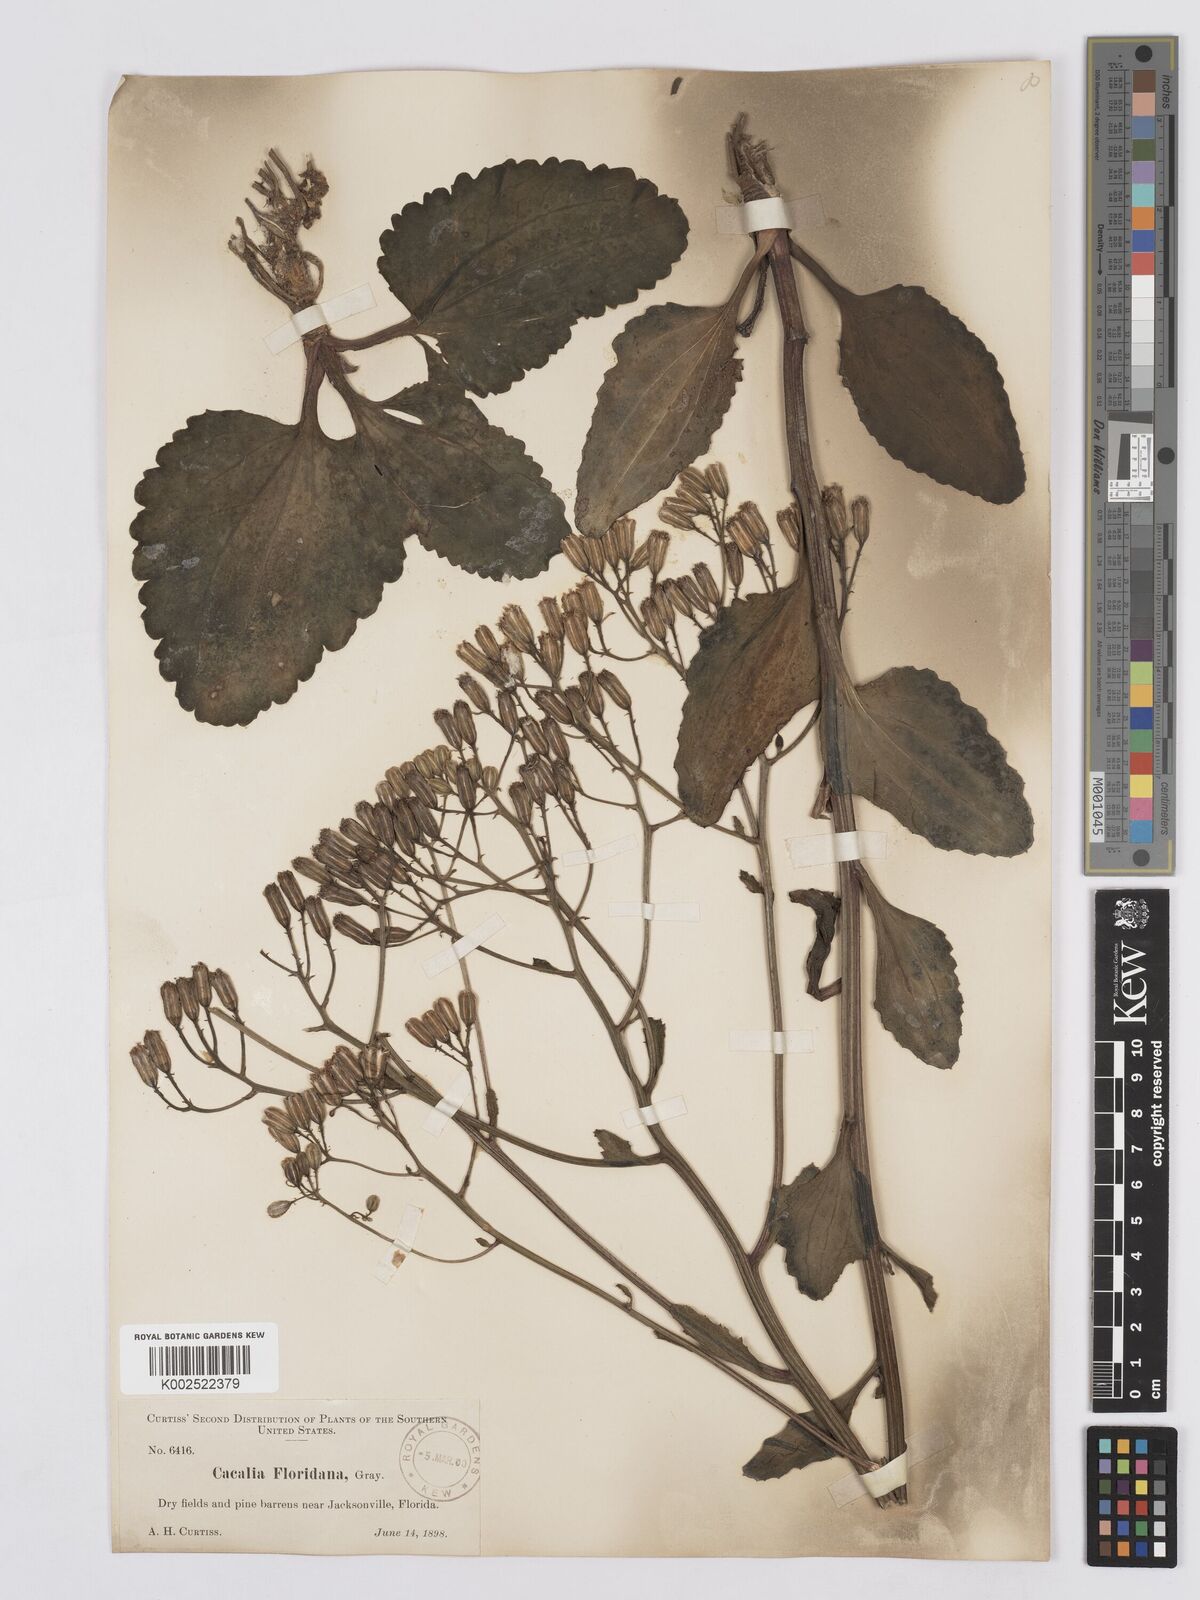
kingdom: Plantae
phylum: Tracheophyta
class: Magnoliopsida
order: Asterales
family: Asteraceae
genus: Arnoglossum
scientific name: Arnoglossum floridanum
